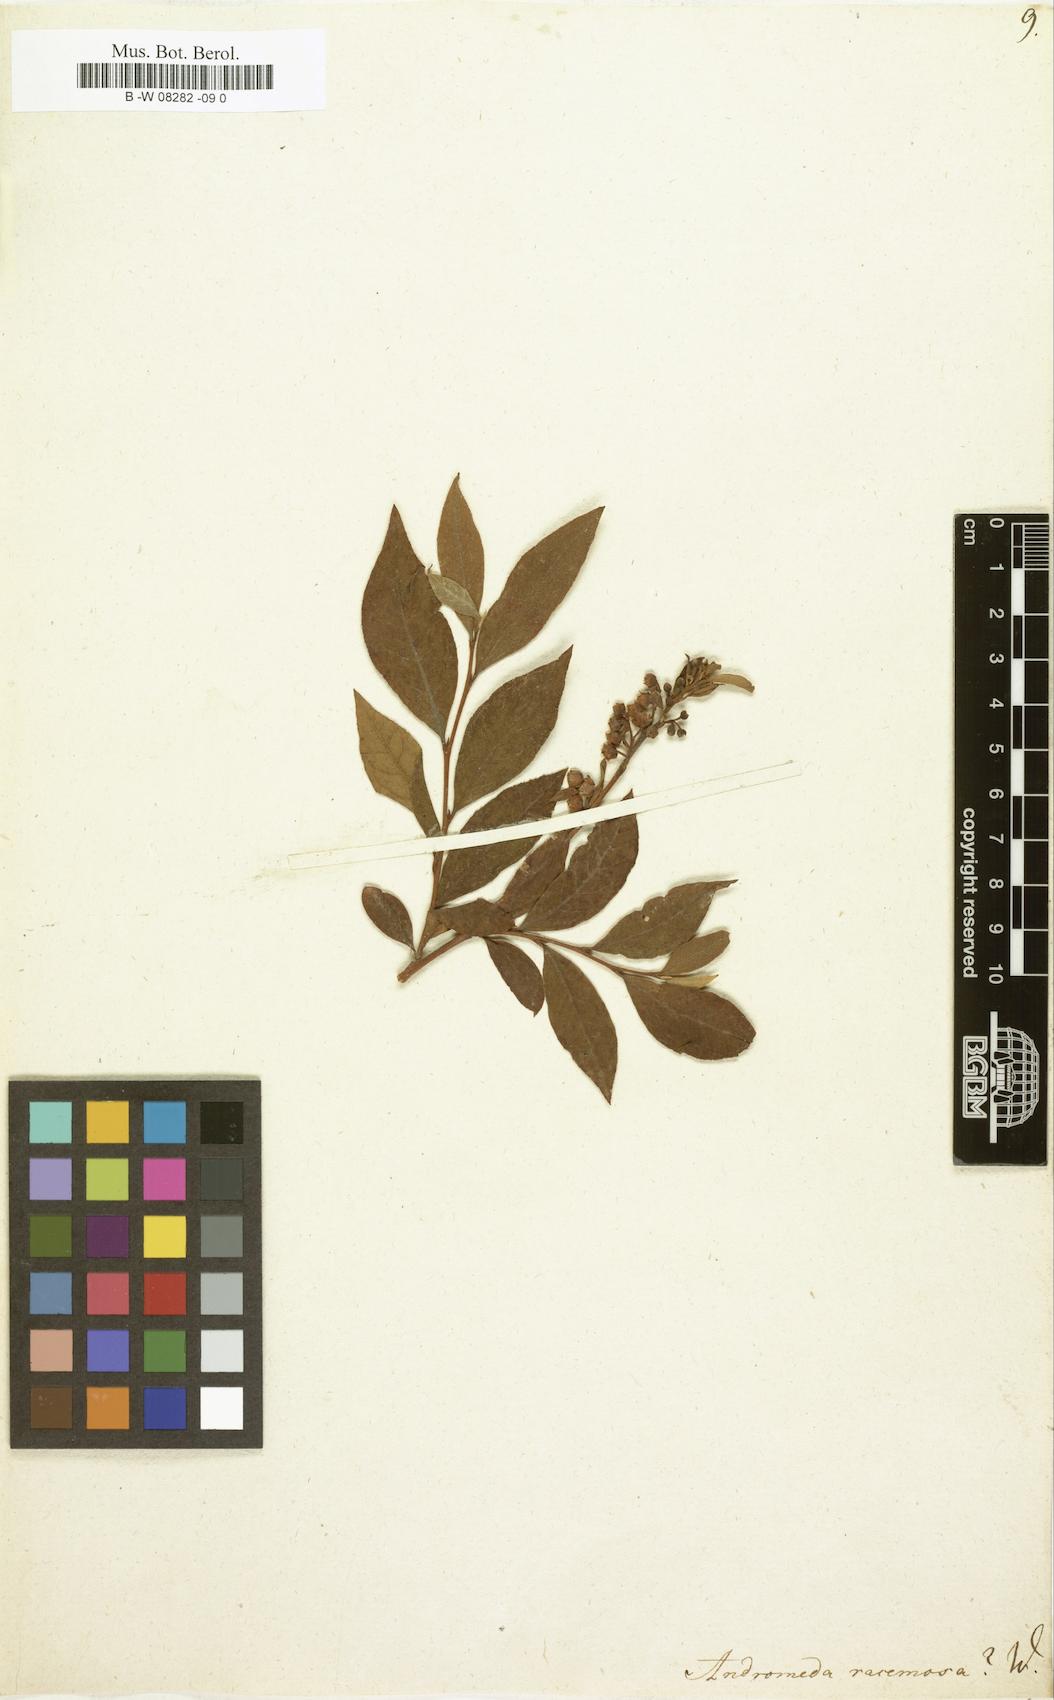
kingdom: Plantae
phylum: Tracheophyta
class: Magnoliopsida
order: Ericales
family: Ericaceae
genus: Eubotrys
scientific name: Eubotrys racemosa
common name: Fetterbush
